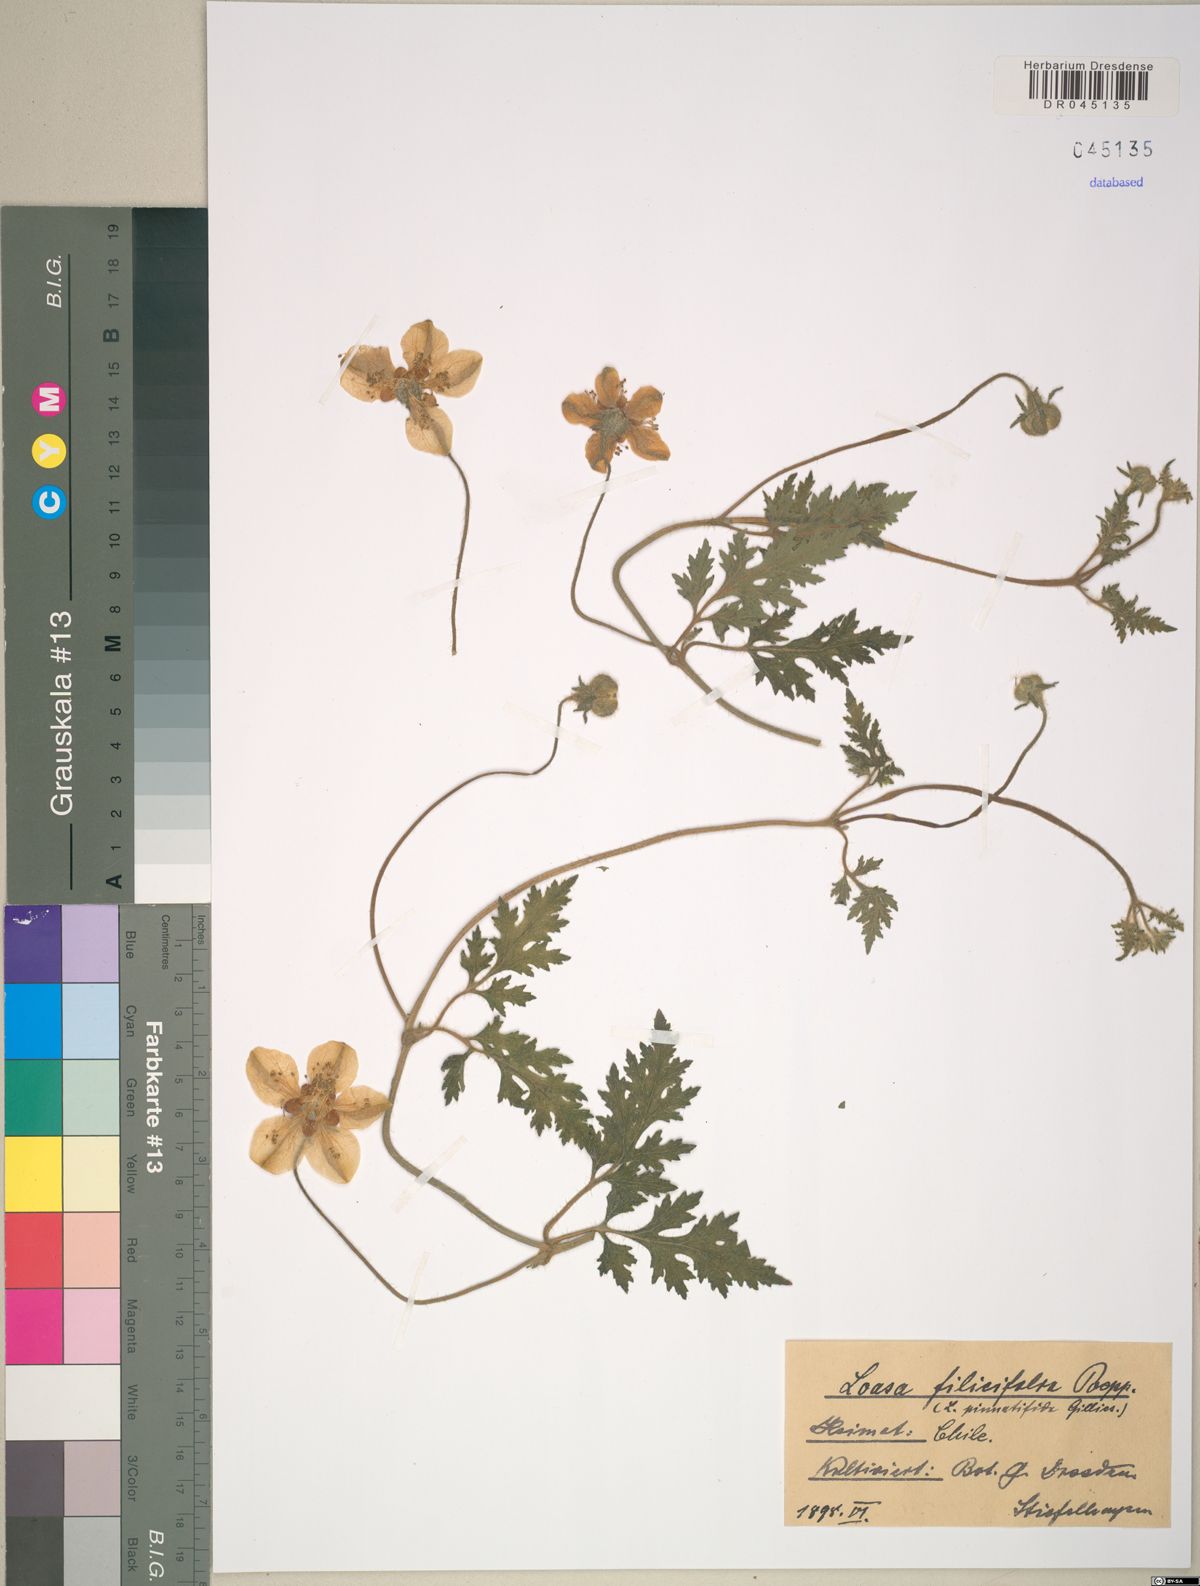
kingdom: Plantae
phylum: Tracheophyta
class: Magnoliopsida
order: Cornales
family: Loasaceae
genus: Pinnasa
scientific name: Pinnasa pinnatifida
